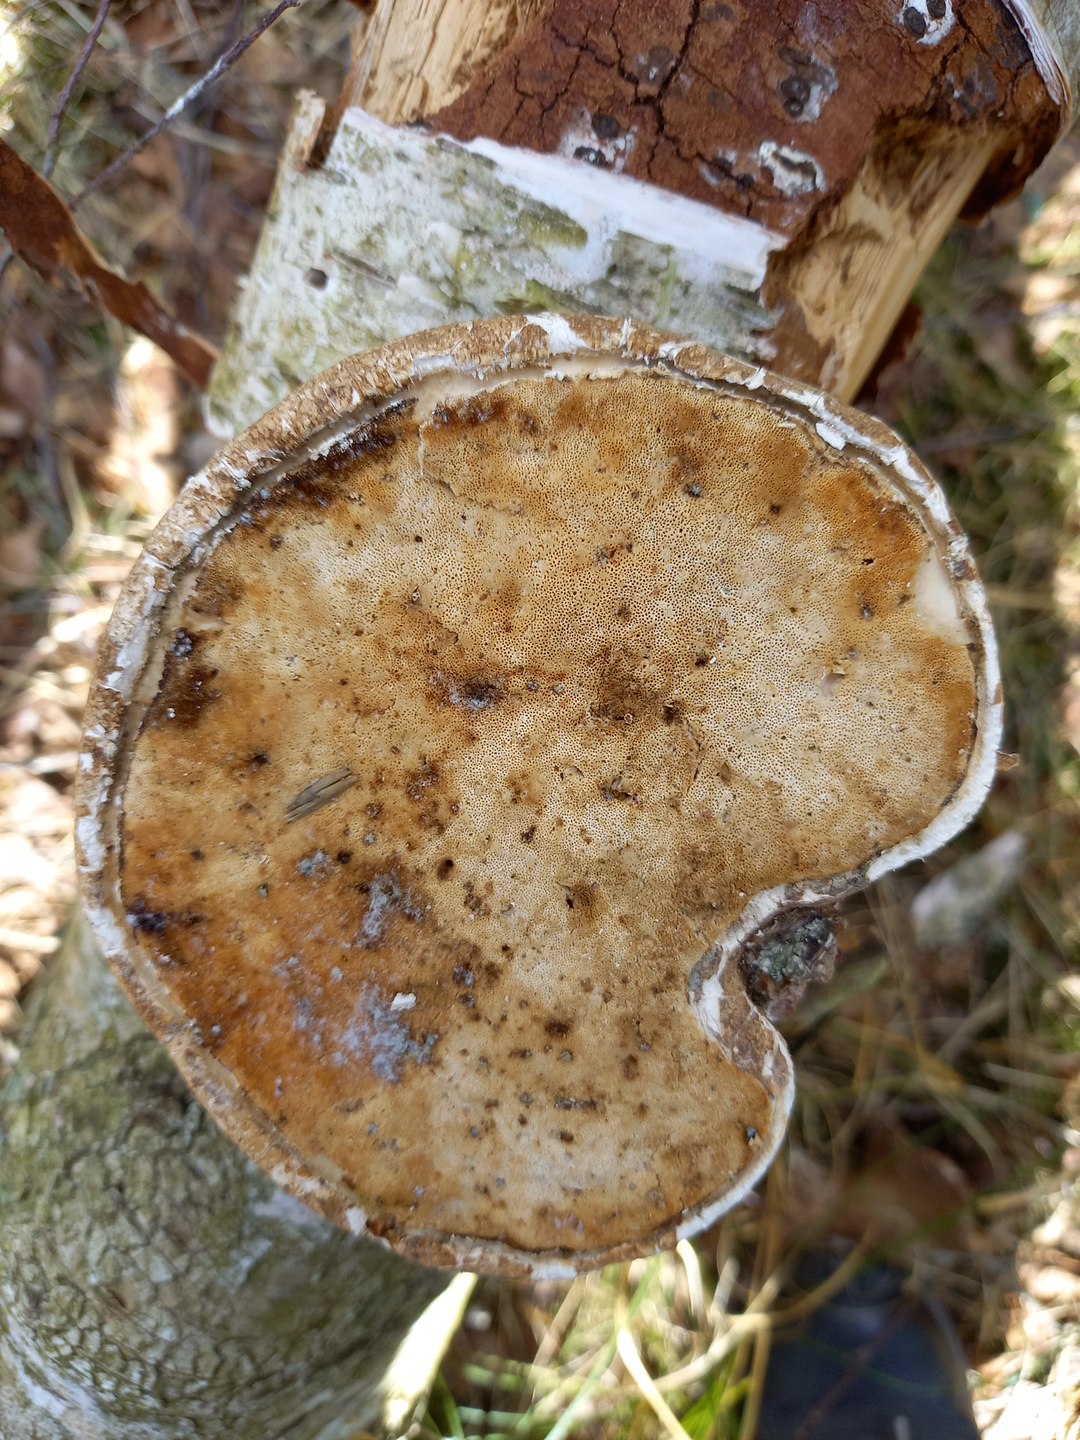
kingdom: Fungi
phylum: Basidiomycota
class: Agaricomycetes
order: Polyporales
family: Fomitopsidaceae
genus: Fomitopsis
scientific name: Fomitopsis betulina
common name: birkeporesvamp
